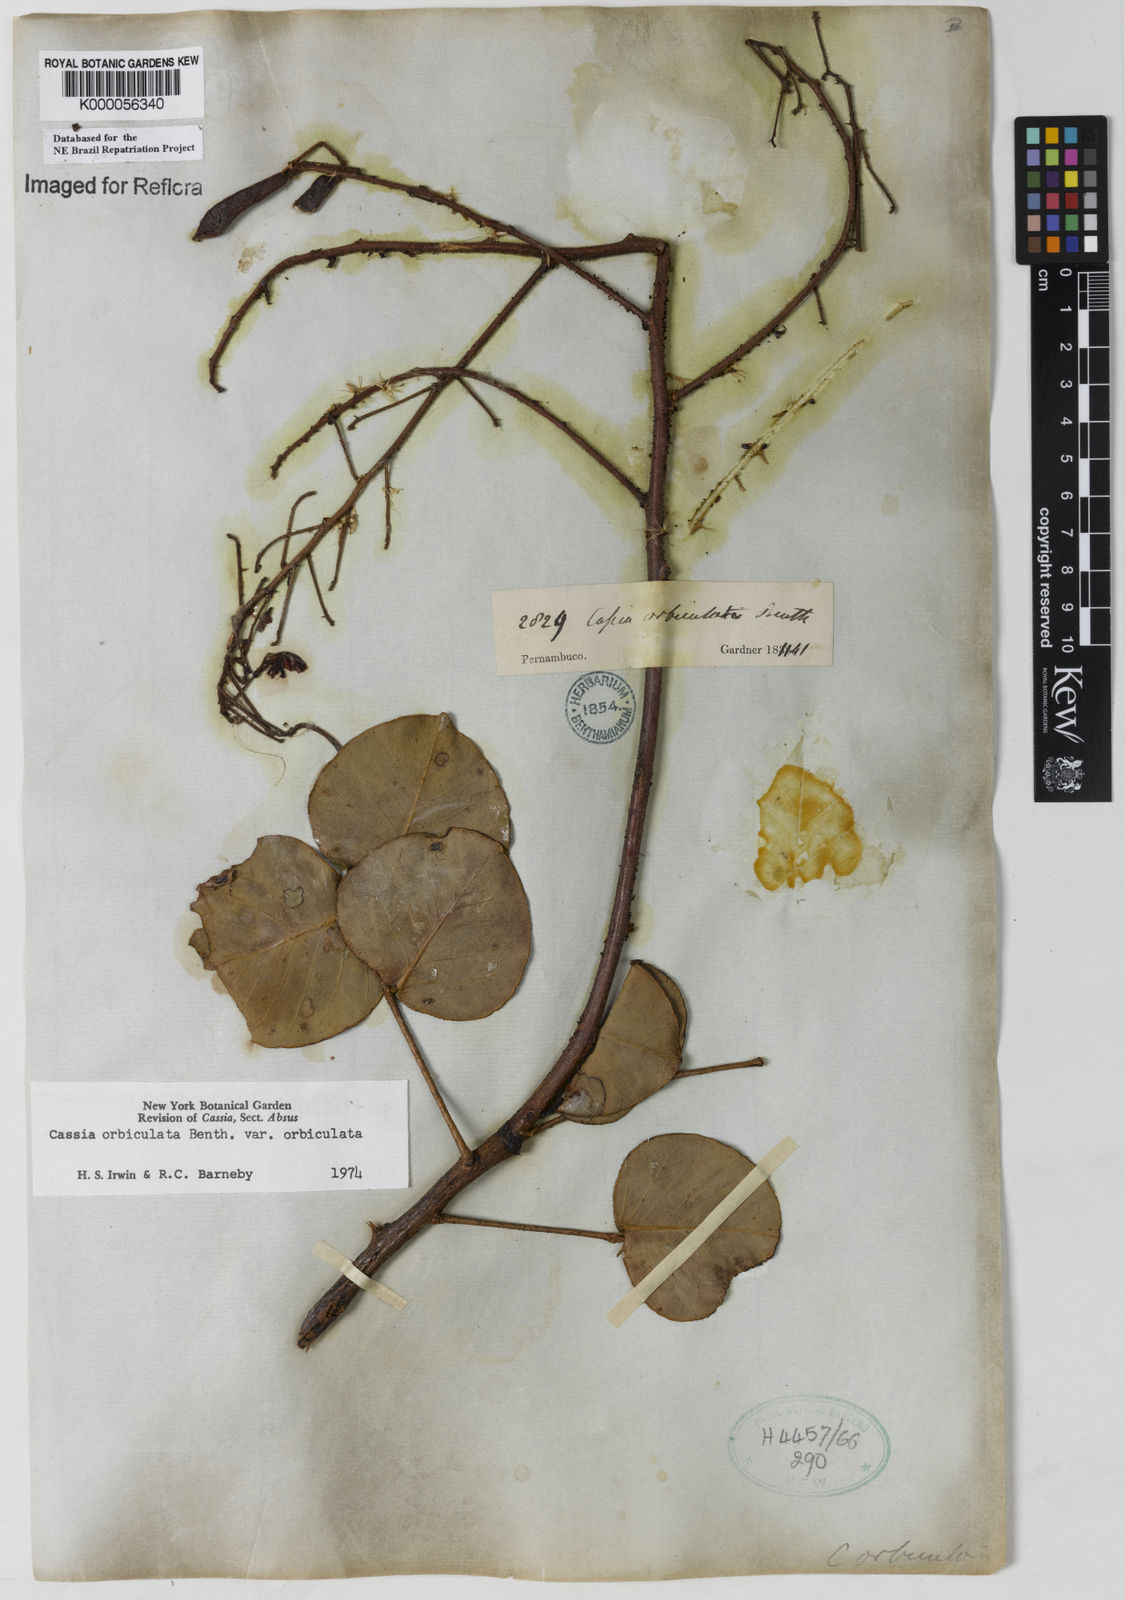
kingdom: Plantae
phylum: Tracheophyta
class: Magnoliopsida
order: Fabales
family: Fabaceae
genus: Chamaecrista
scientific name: Chamaecrista orbiculata
